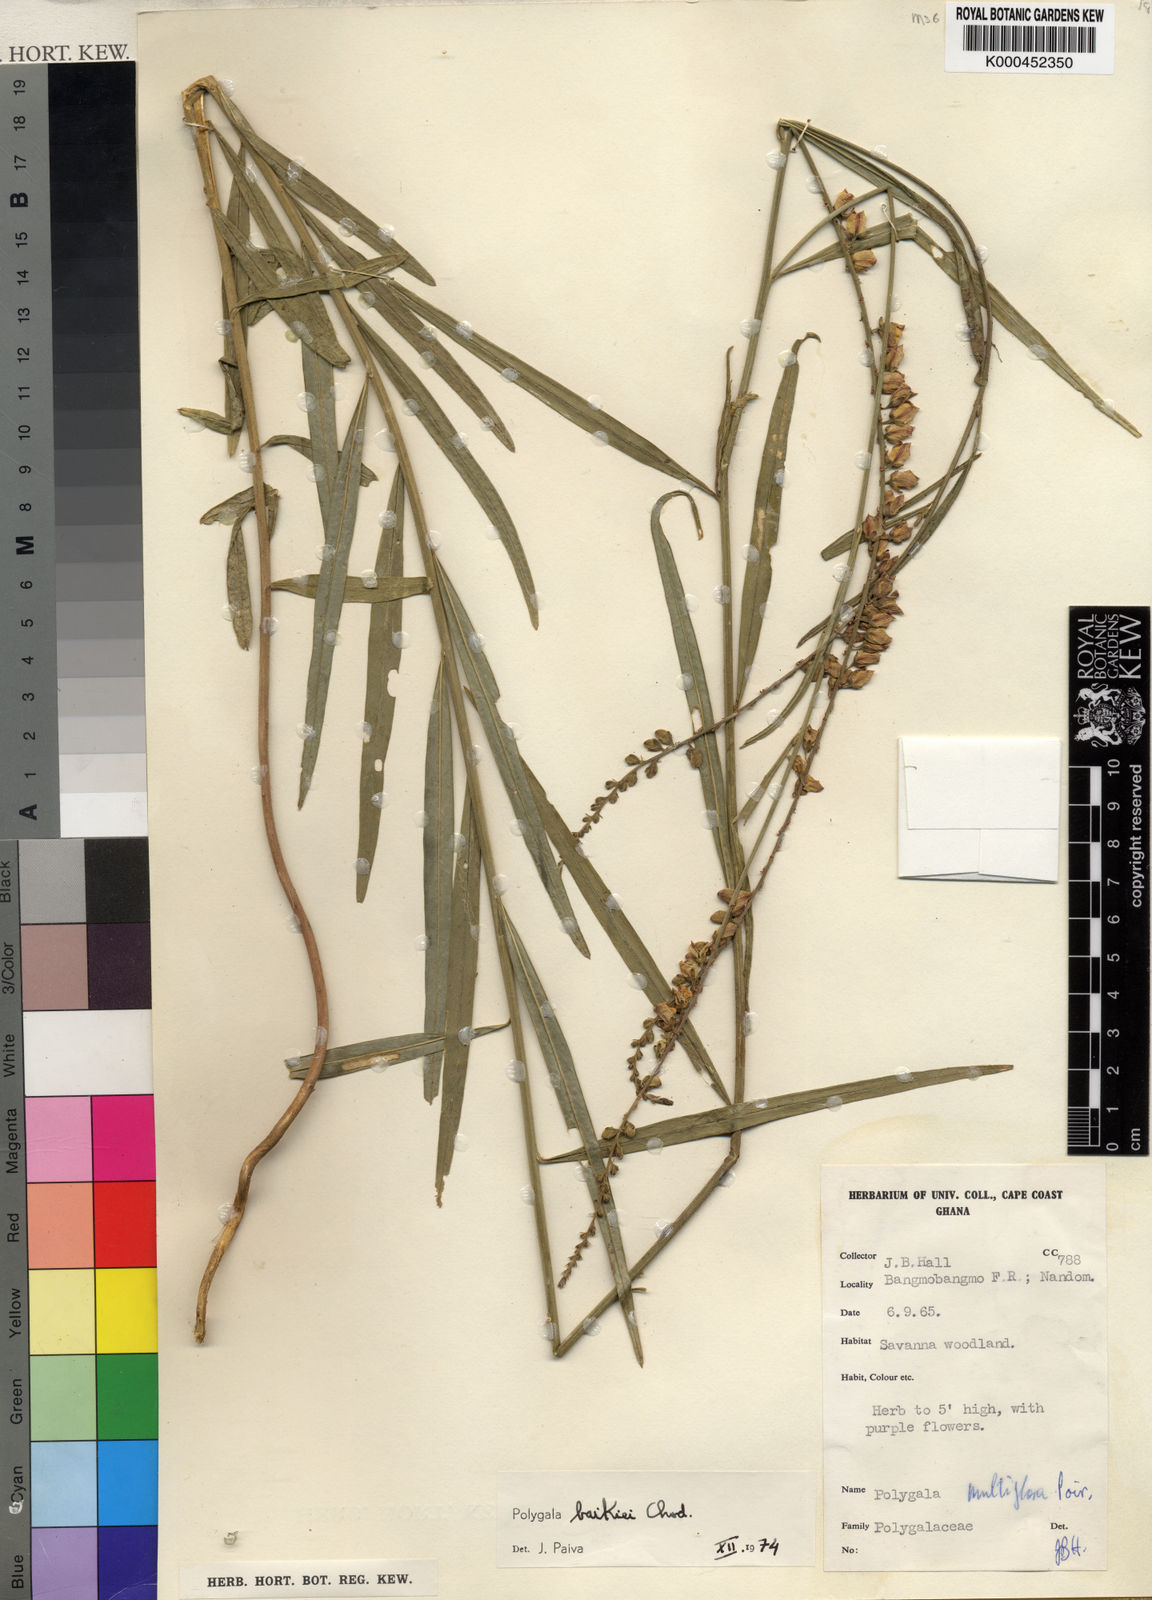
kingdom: Plantae
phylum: Tracheophyta
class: Magnoliopsida
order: Fabales
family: Polygalaceae
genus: Polygala
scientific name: Polygala baikiei
